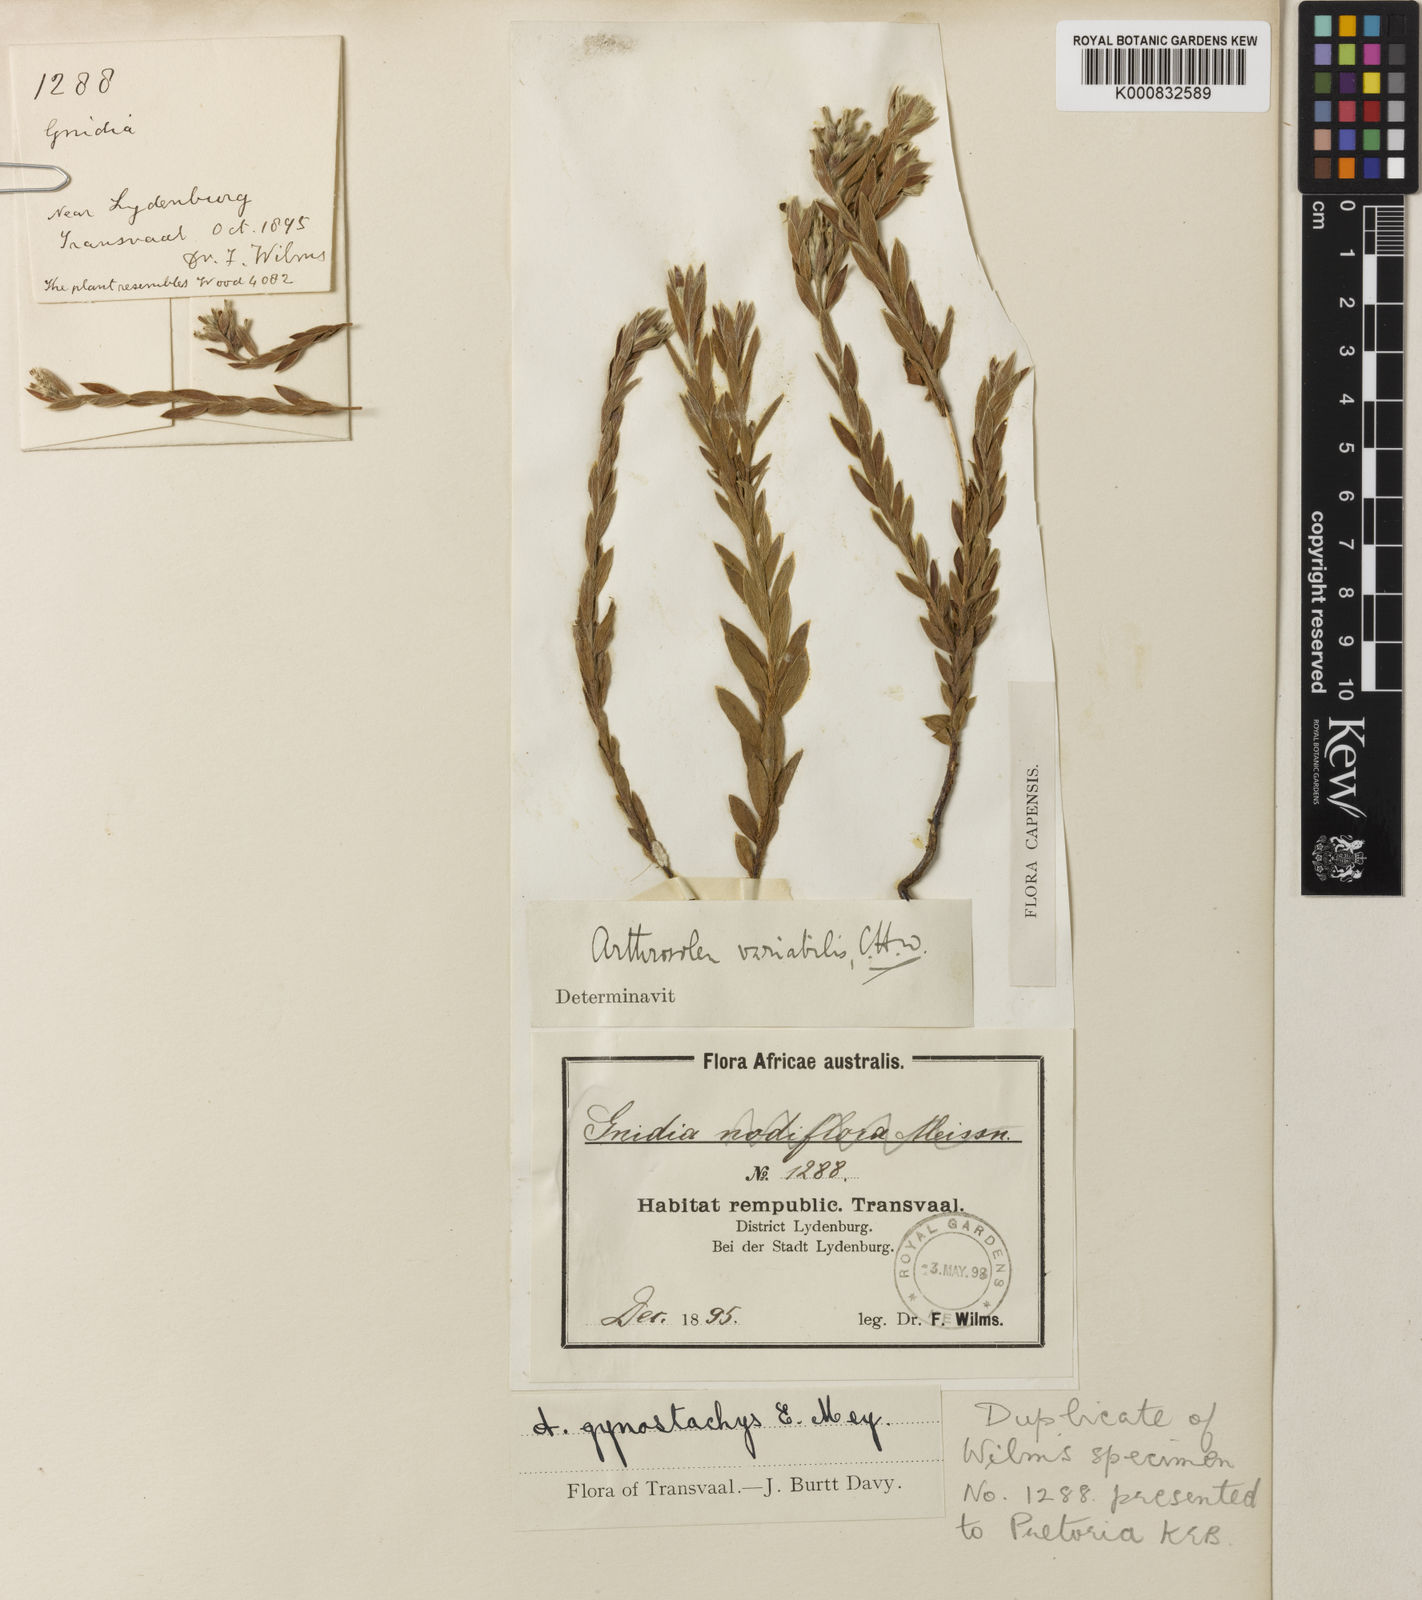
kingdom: Plantae
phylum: Tracheophyta
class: Magnoliopsida
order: Malvales
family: Thymelaeaceae
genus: Gnidia
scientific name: Gnidia variabilis
